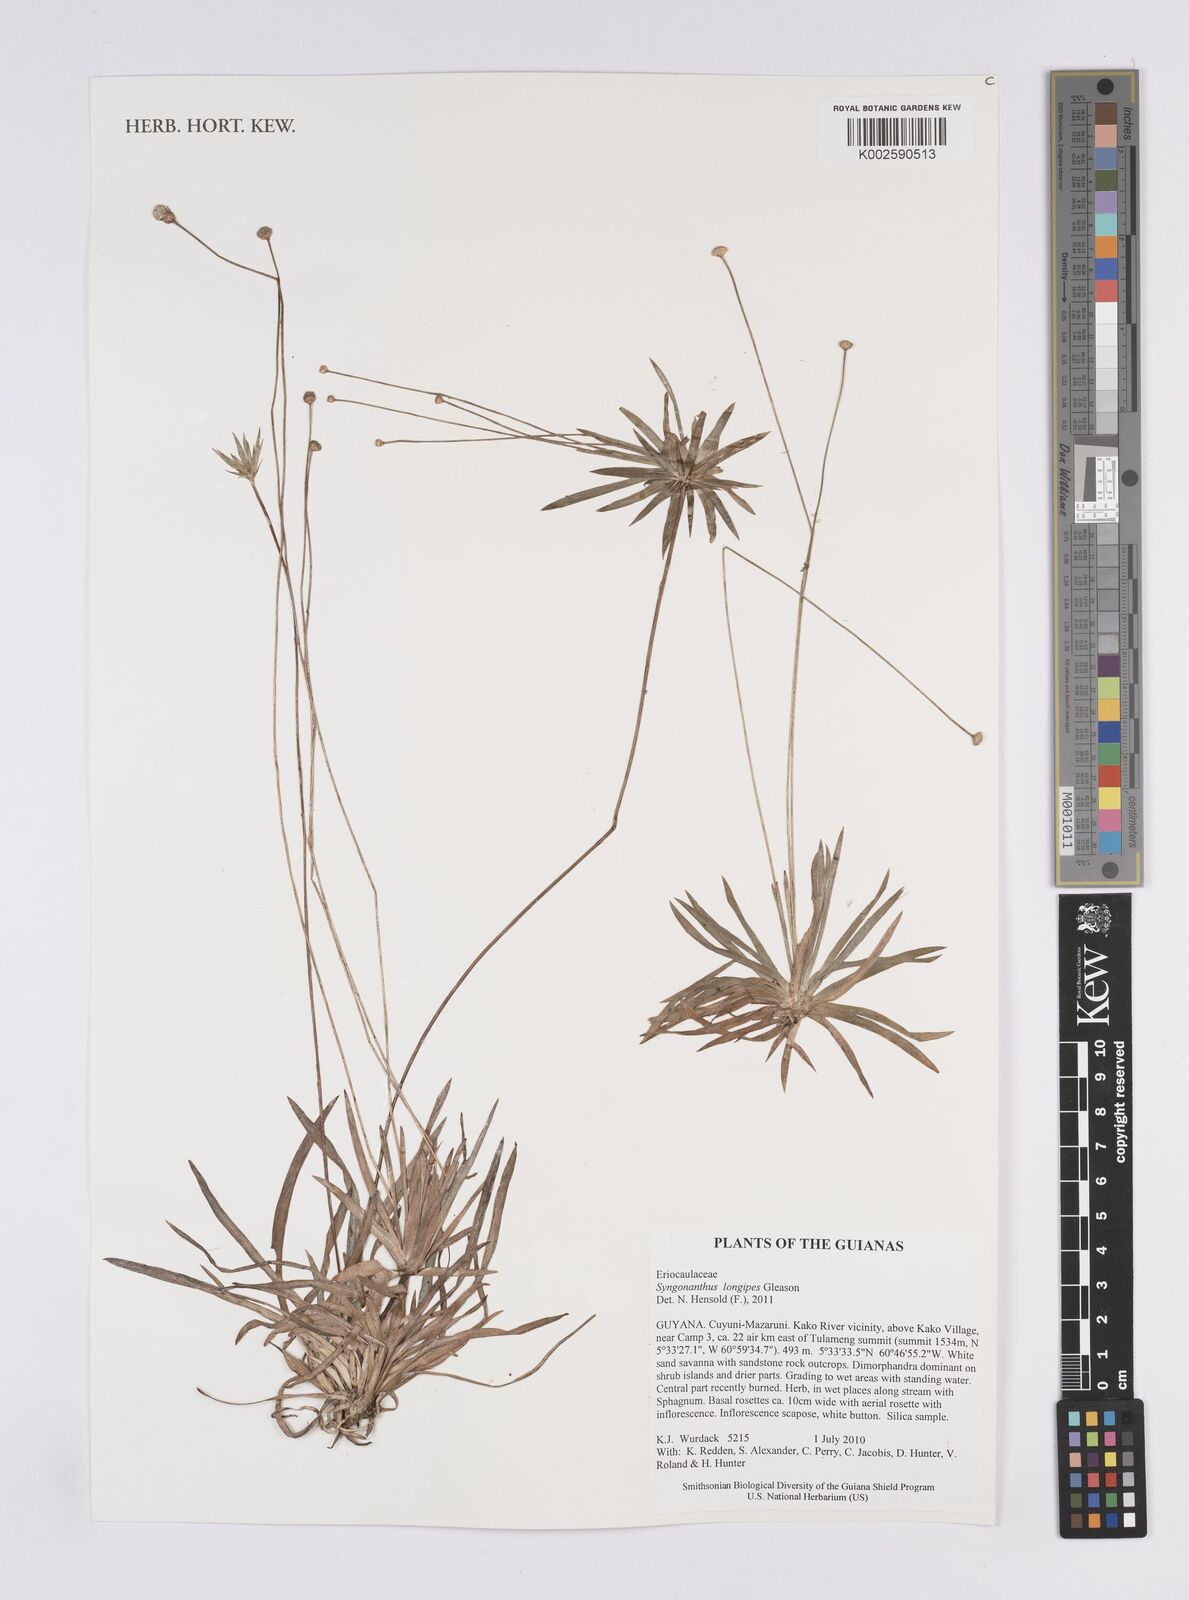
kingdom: Plantae
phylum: Tracheophyta
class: Liliopsida
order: Poales
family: Eriocaulaceae
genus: Syngonanthus
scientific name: Syngonanthus longipes
